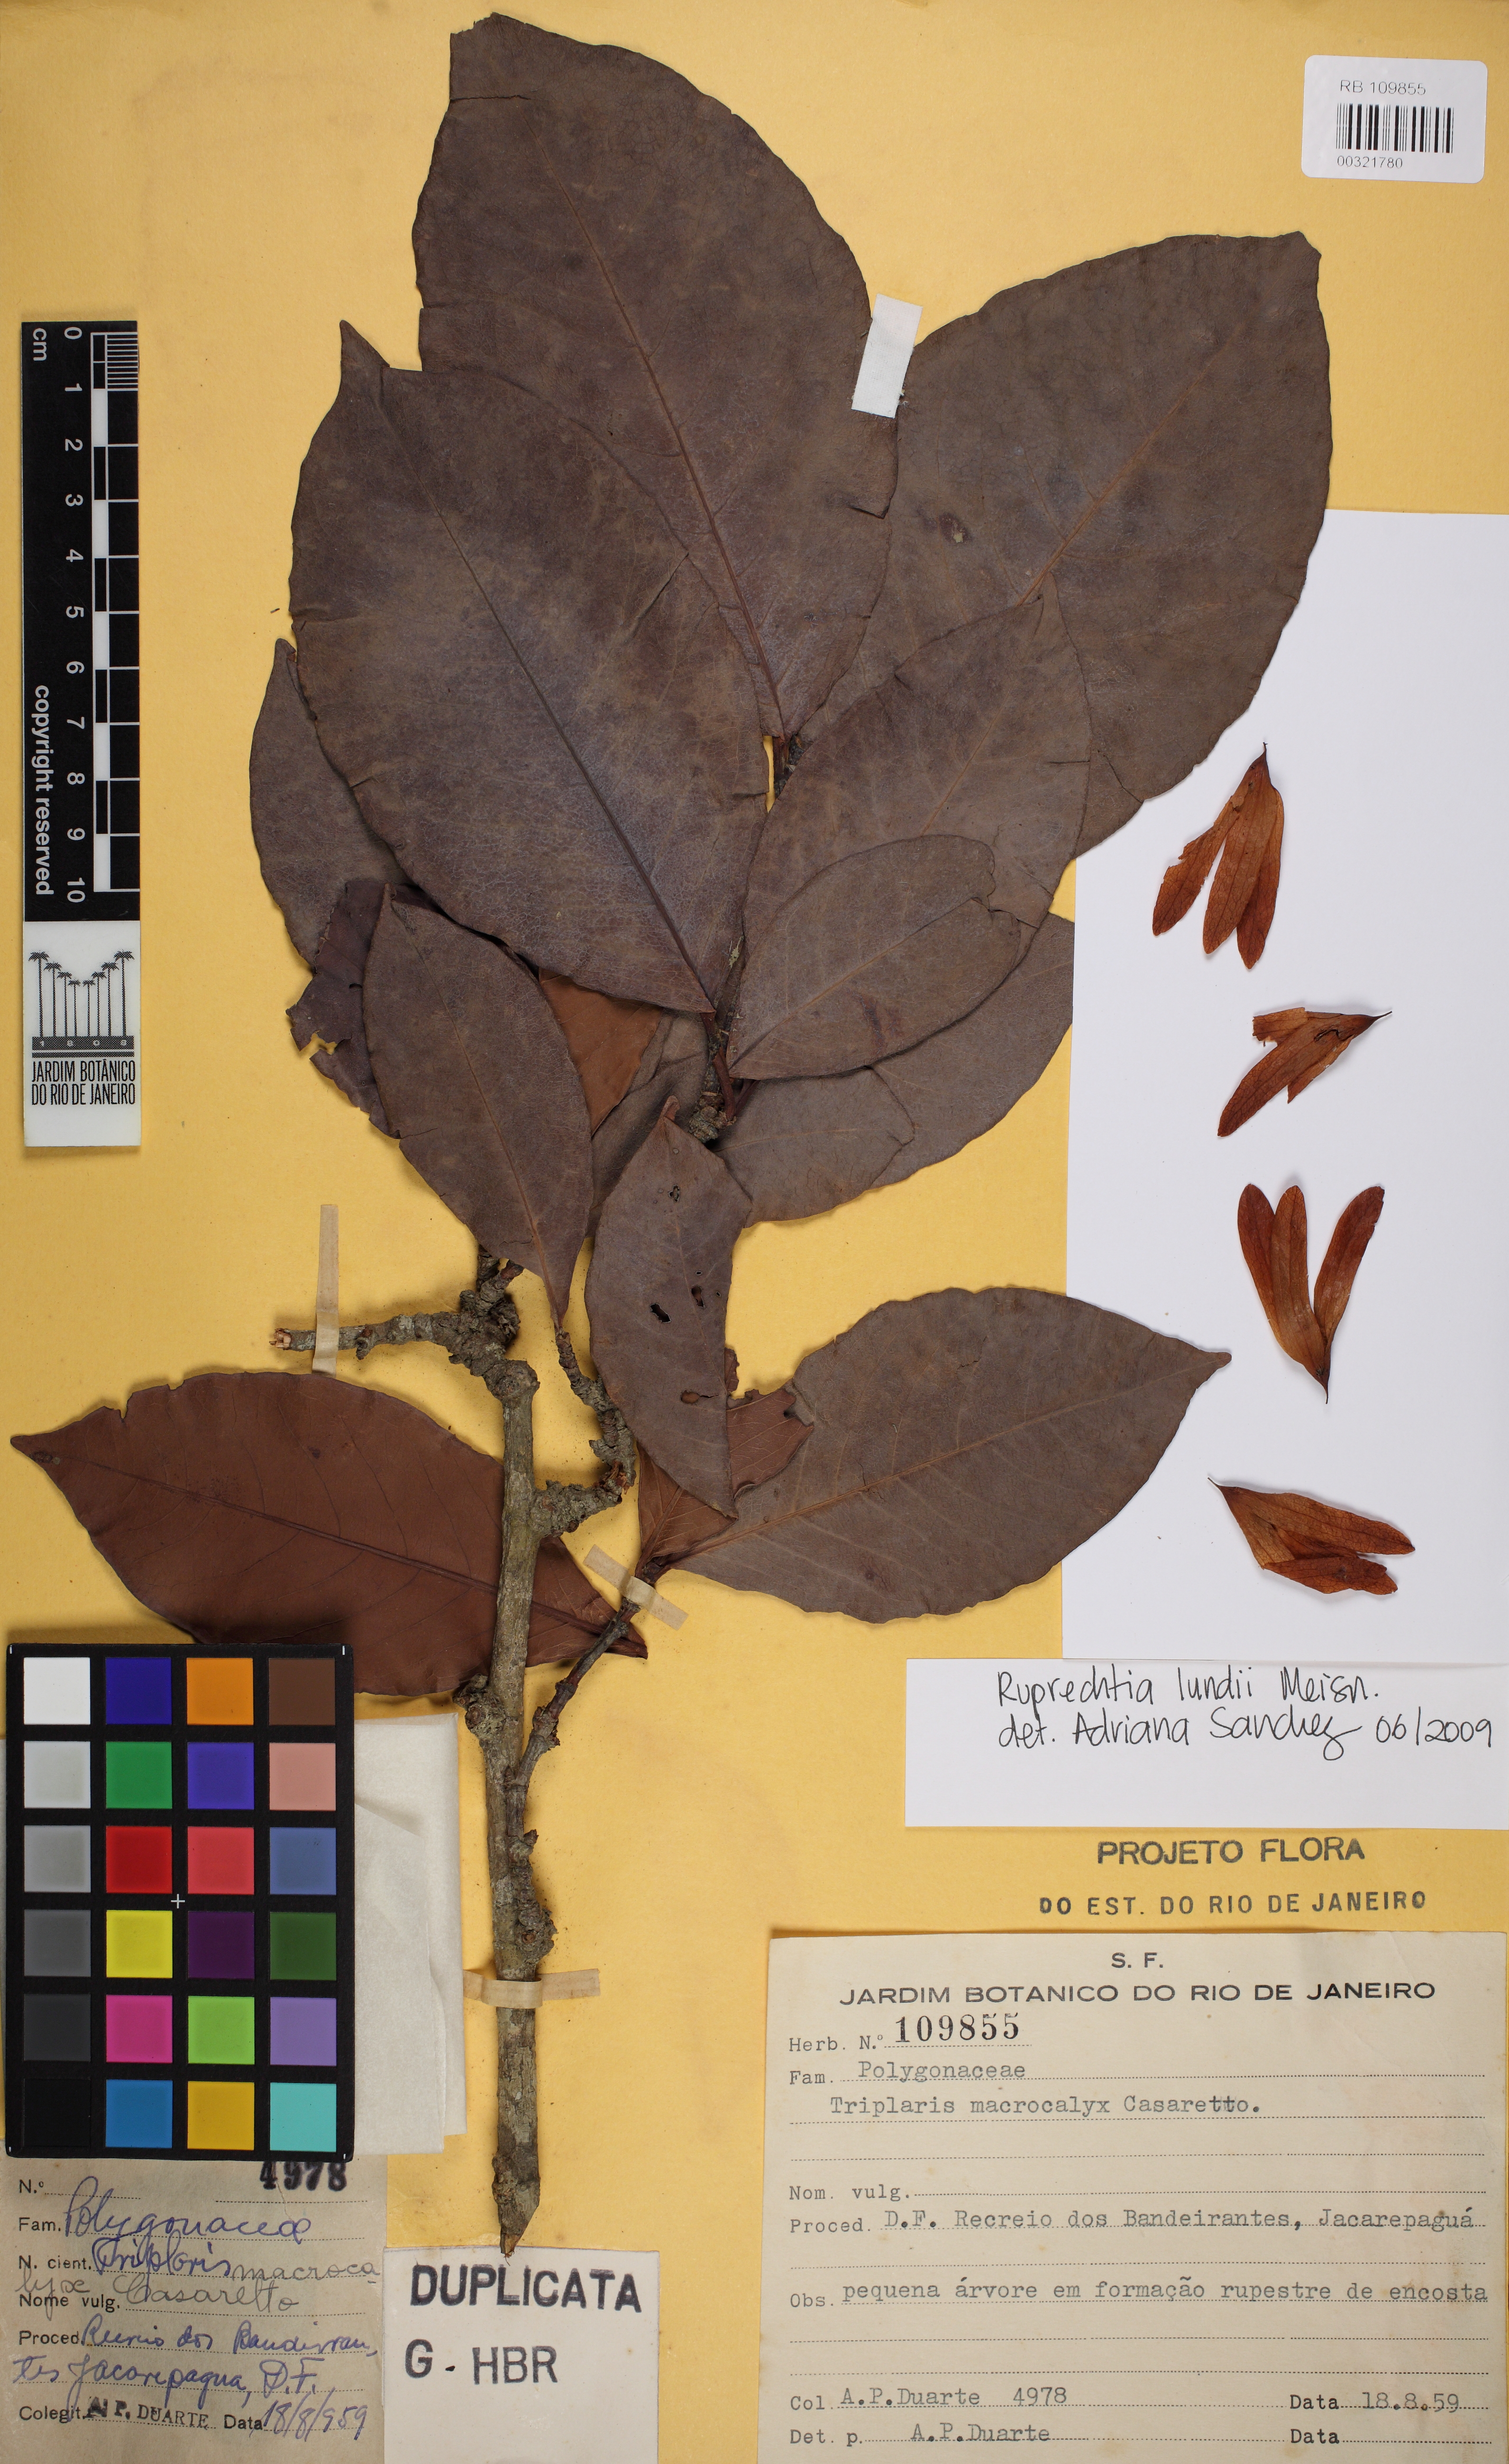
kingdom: Plantae
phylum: Tracheophyta
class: Magnoliopsida
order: Caryophyllales
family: Polygonaceae
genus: Ruprechtia
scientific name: Ruprechtia lundii
